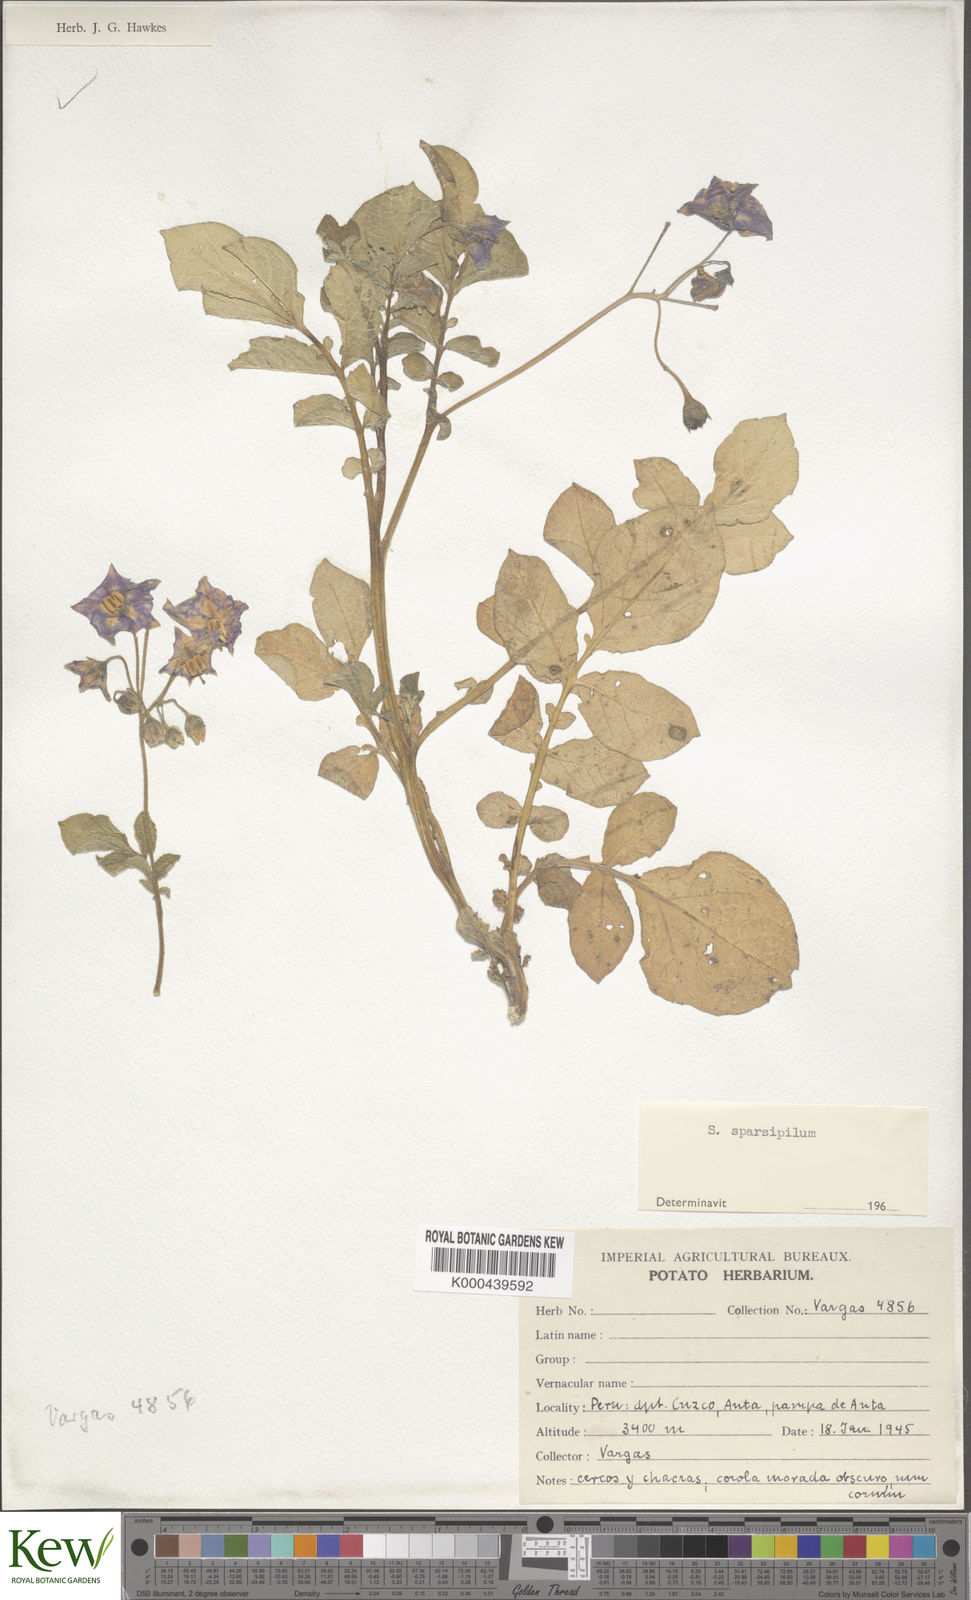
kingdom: Plantae
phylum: Tracheophyta
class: Magnoliopsida
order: Solanales
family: Solanaceae
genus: Solanum
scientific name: Solanum raphanifolium
